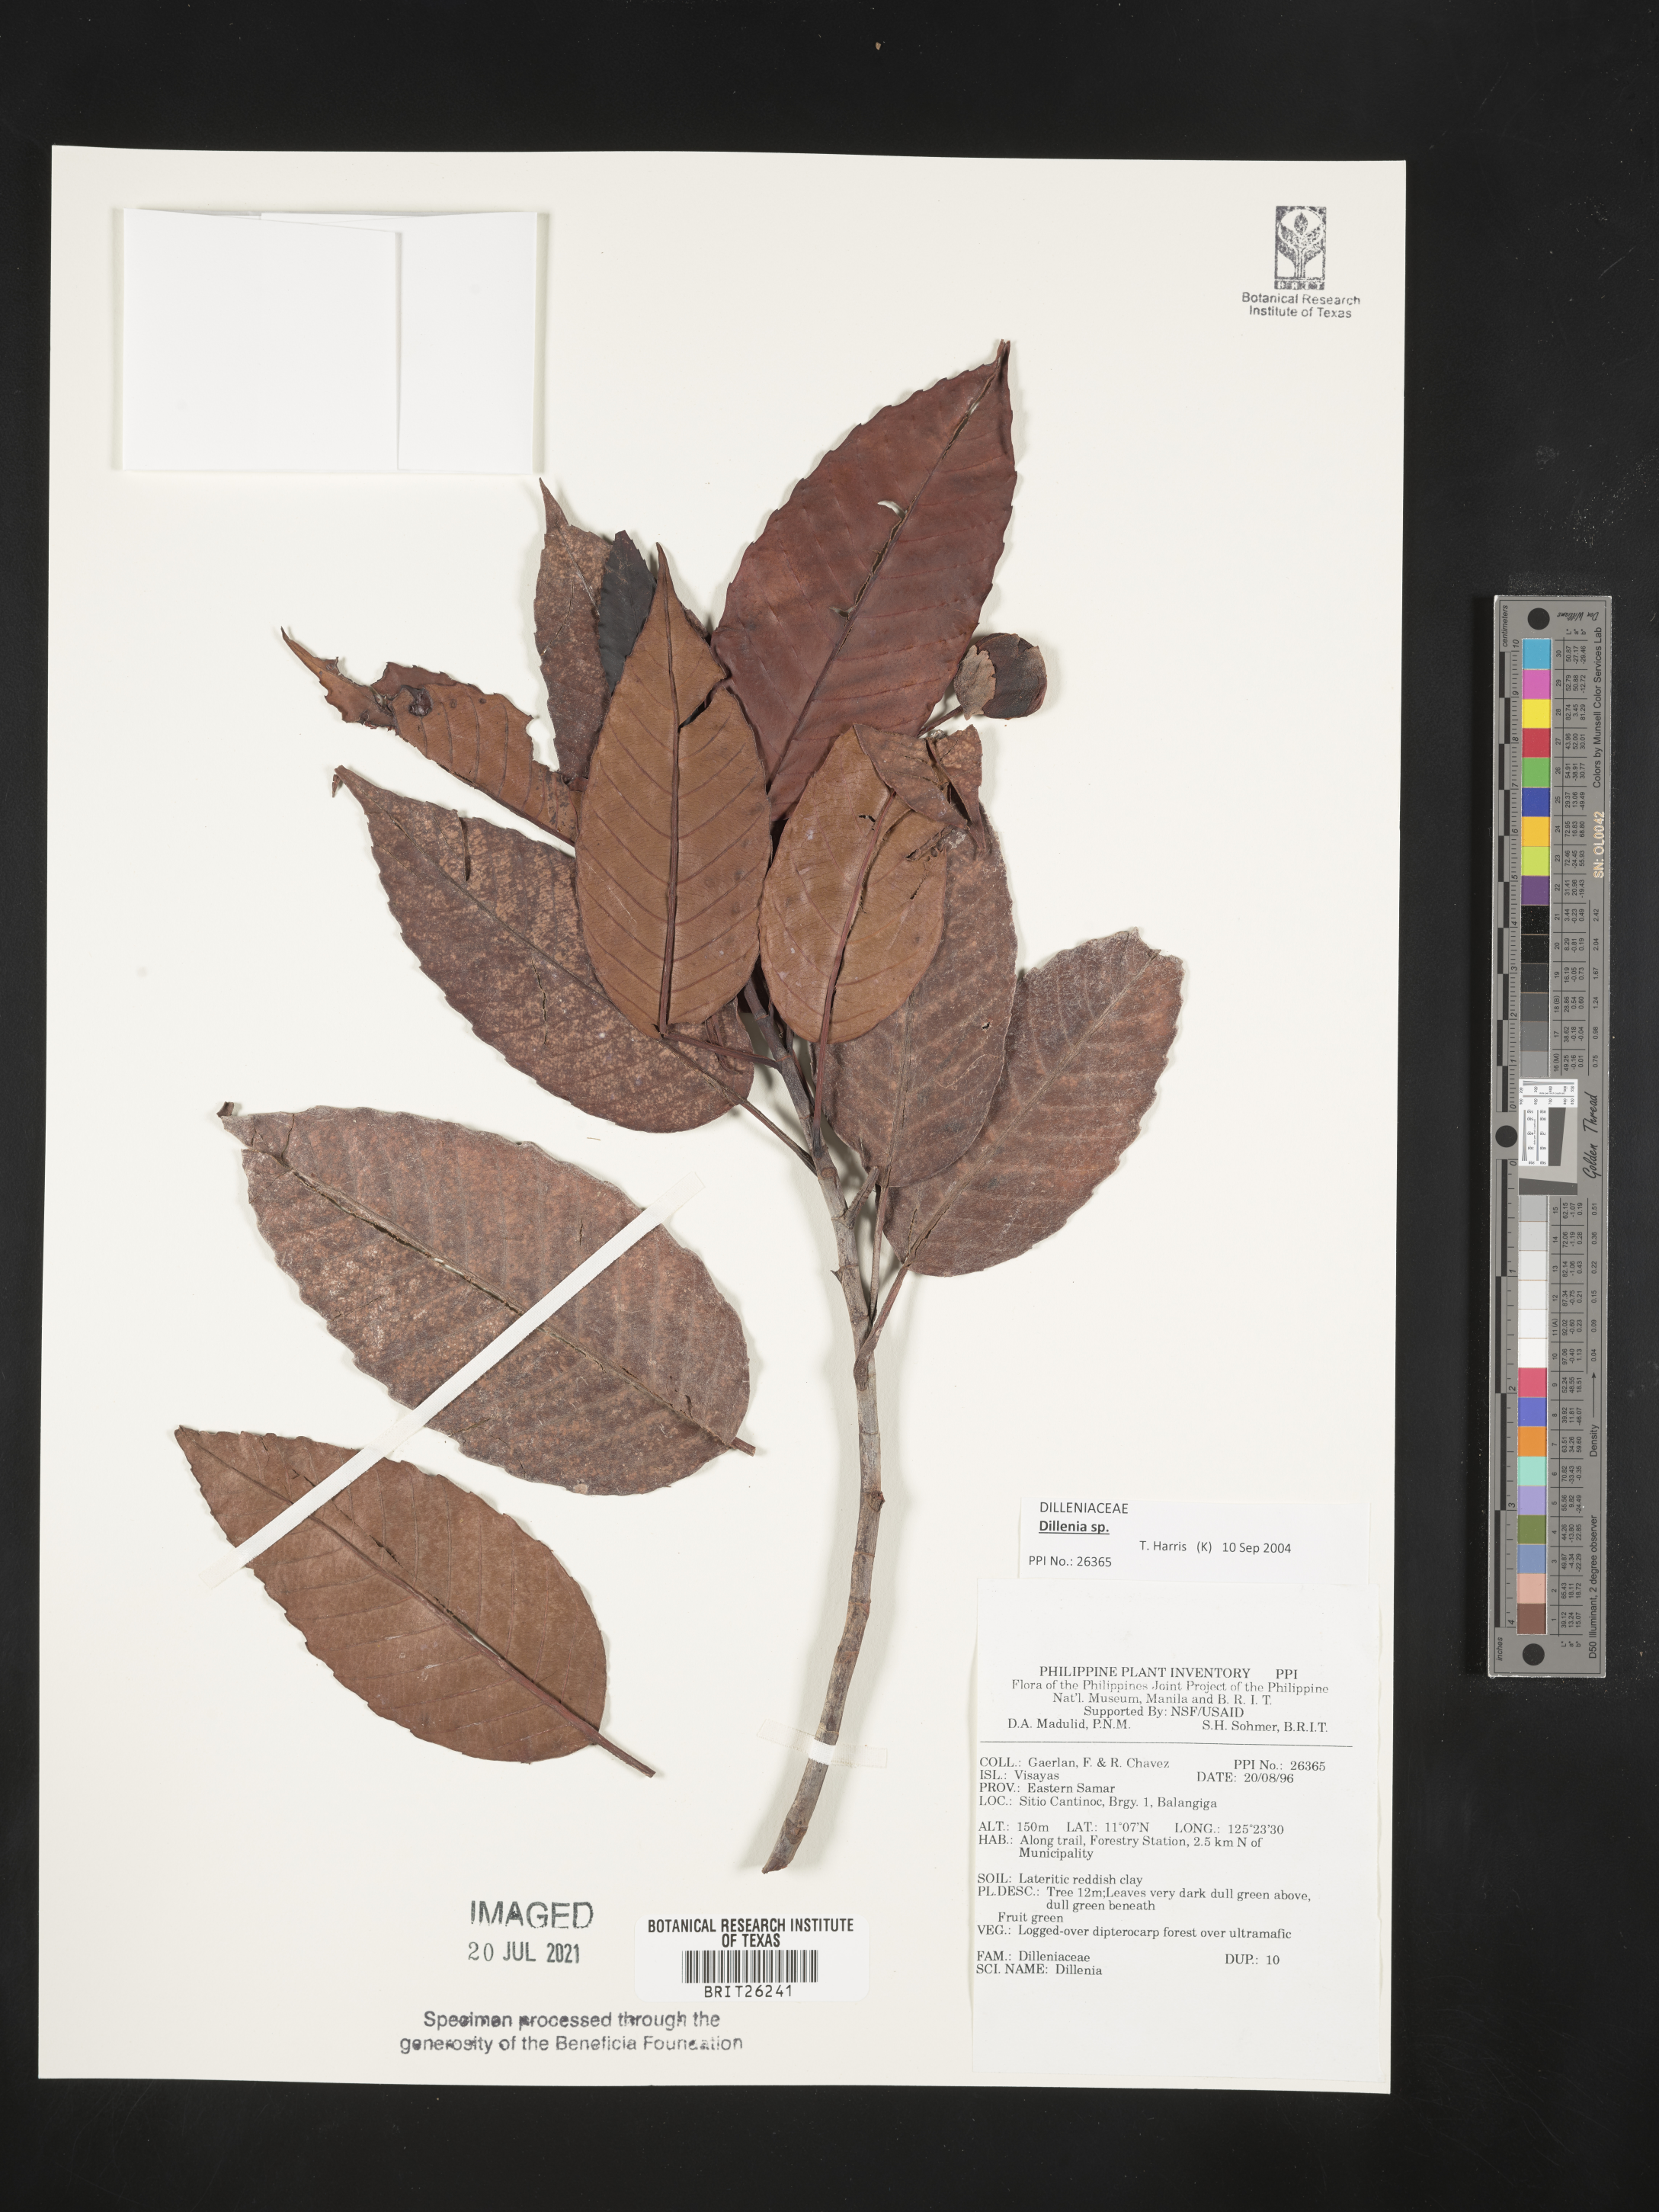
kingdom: Plantae
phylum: Tracheophyta
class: Magnoliopsida
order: Dilleniales
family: Dilleniaceae
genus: Dillenia
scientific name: Dillenia
